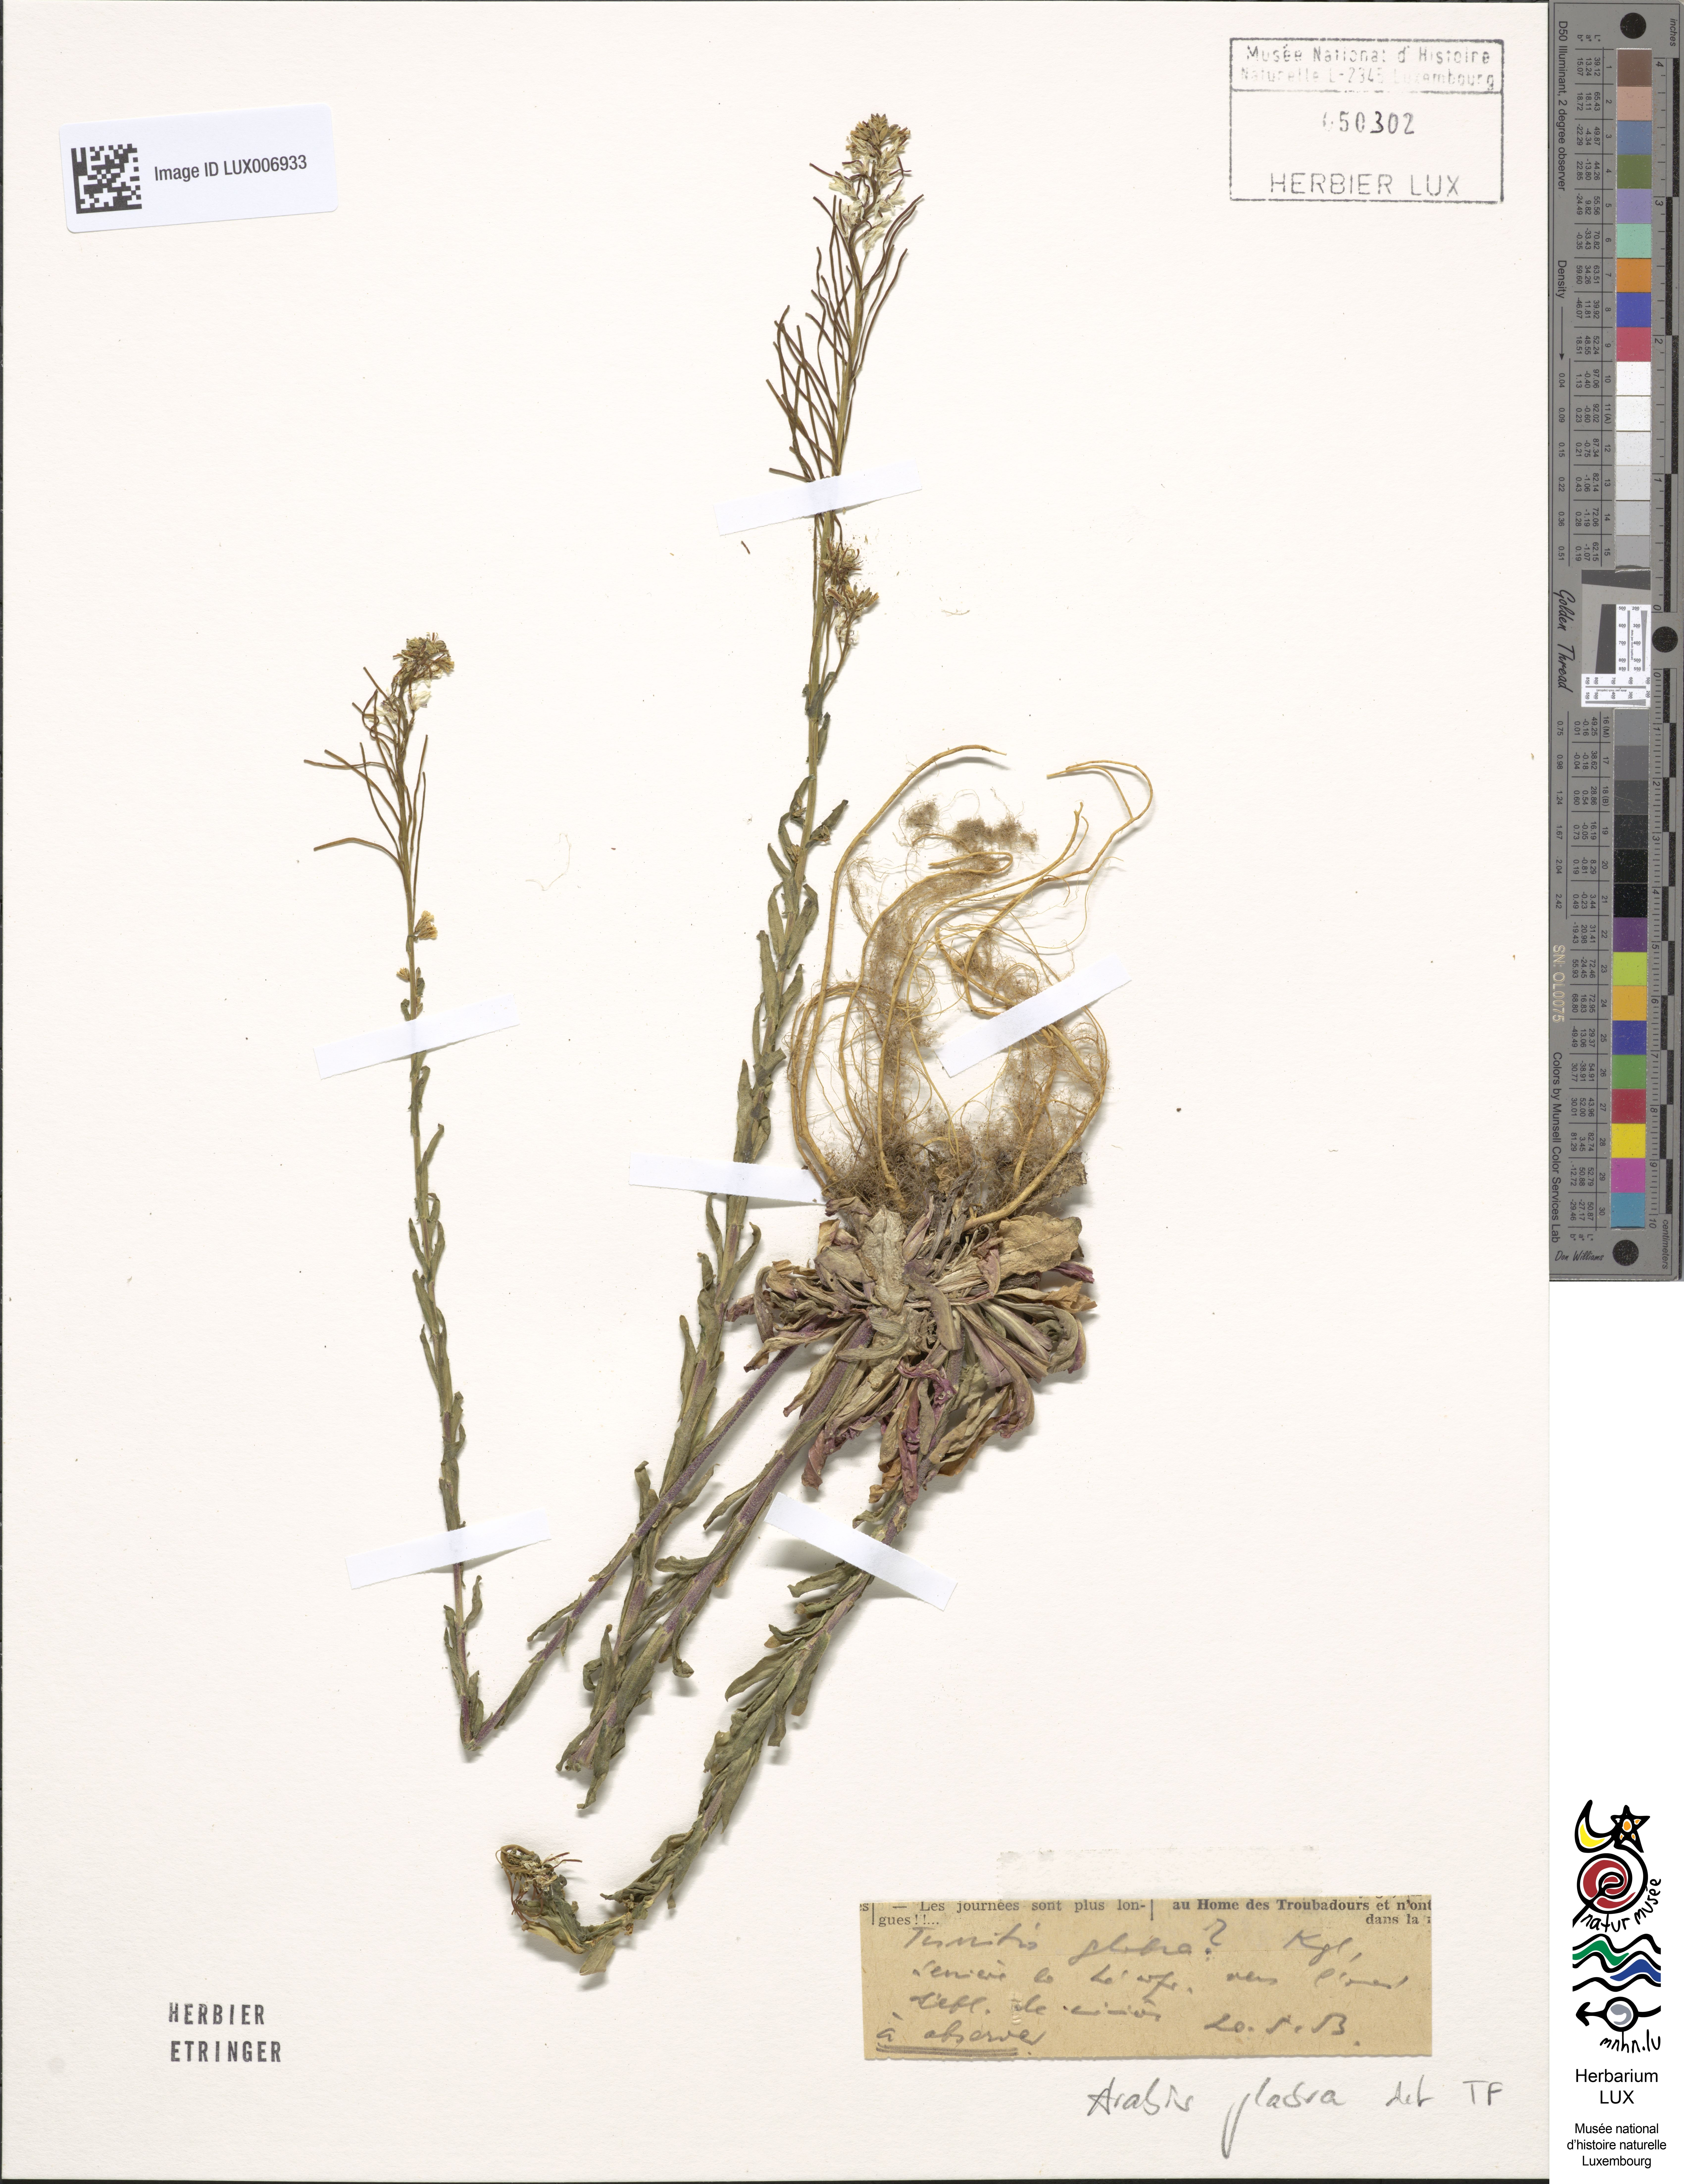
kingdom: Plantae
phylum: Tracheophyta
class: Magnoliopsida
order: Brassicales
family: Brassicaceae
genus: Turritis
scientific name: Turritis glabra
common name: Tower rockcress
